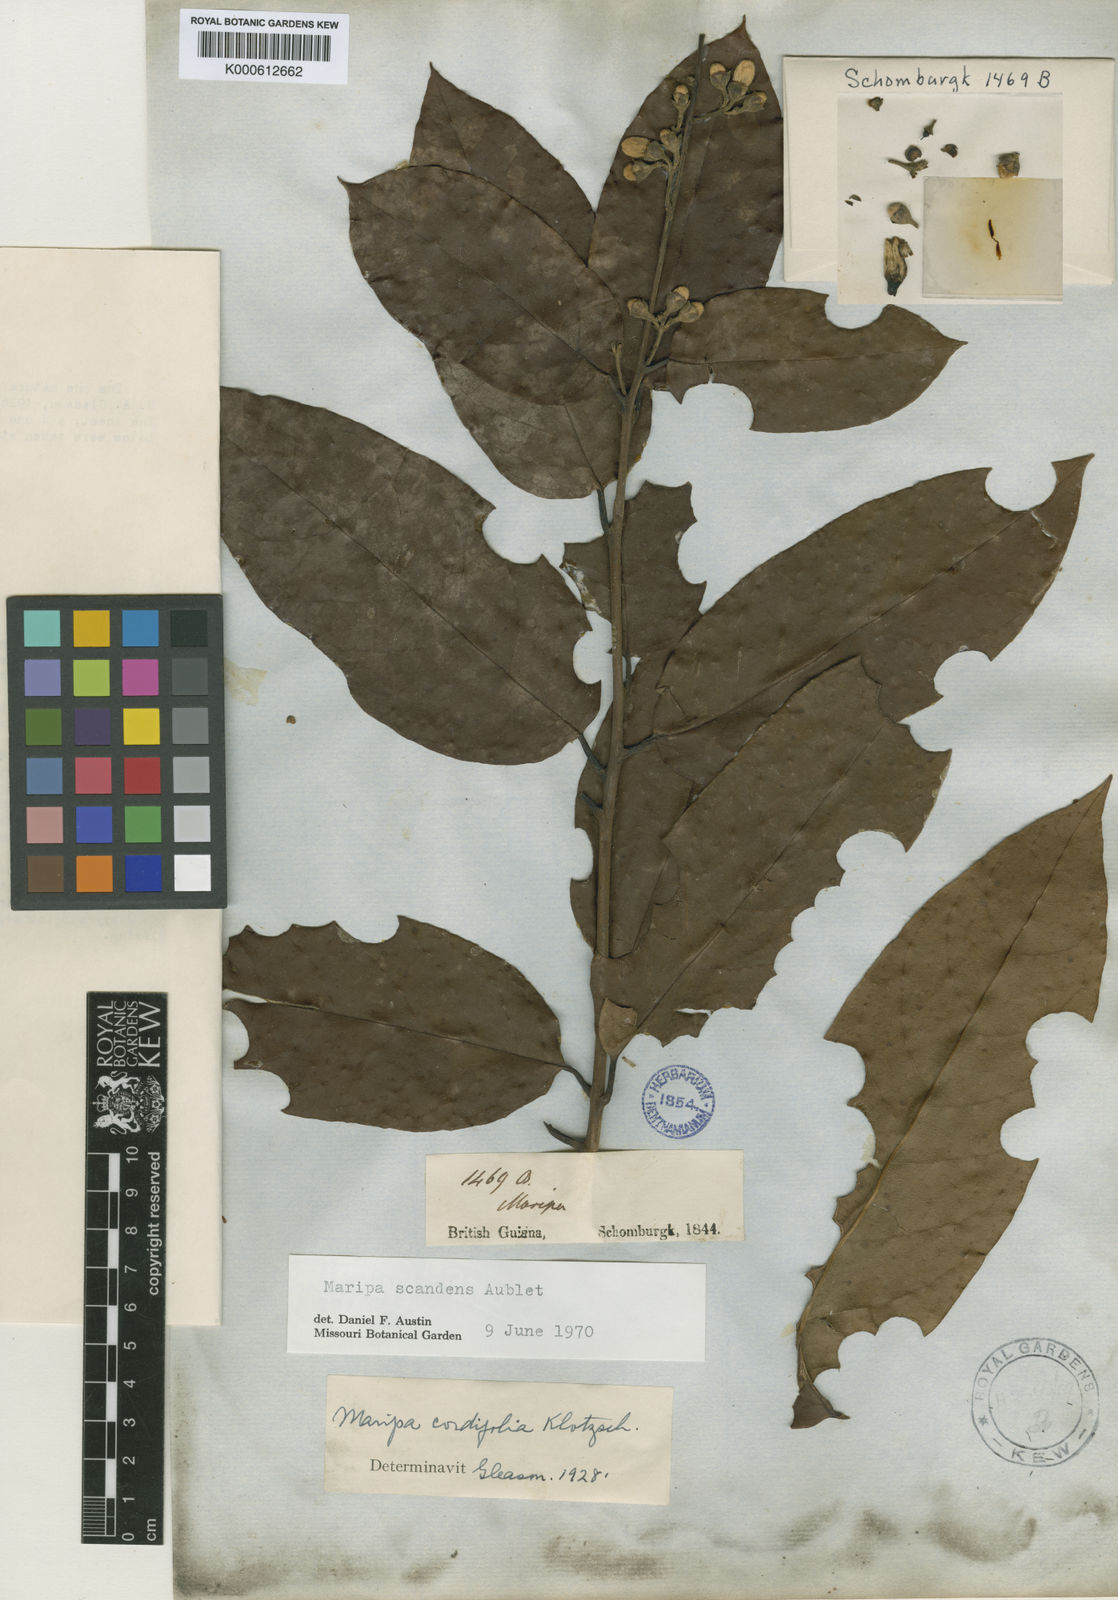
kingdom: Plantae
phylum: Tracheophyta
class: Magnoliopsida
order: Solanales
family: Convolvulaceae
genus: Maripa
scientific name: Maripa scandens
